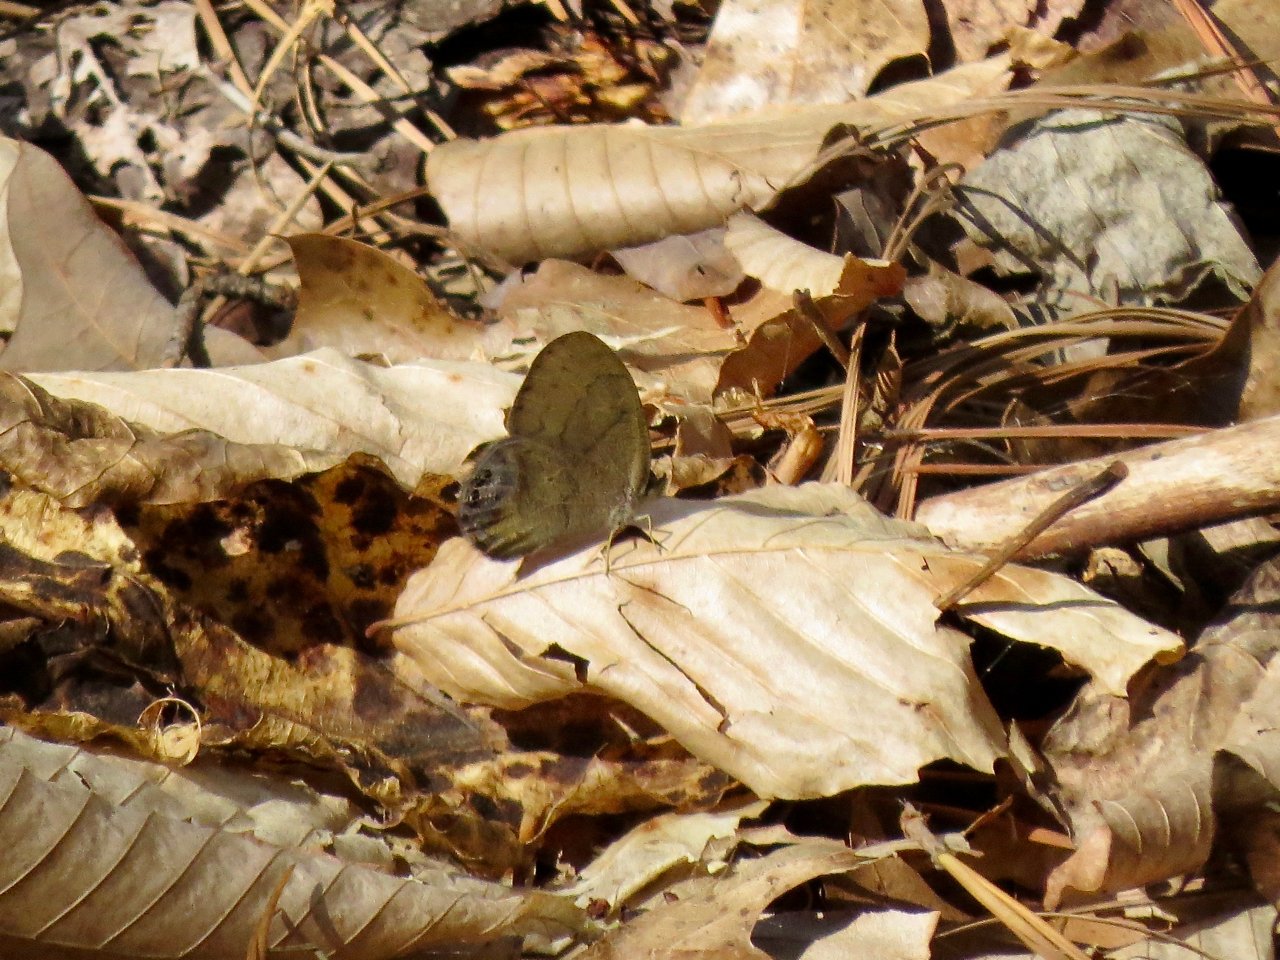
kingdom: Animalia
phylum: Arthropoda
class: Insecta
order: Lepidoptera
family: Nymphalidae
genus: Euptychia
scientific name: Euptychia cornelius
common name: Gemmed Satyr
